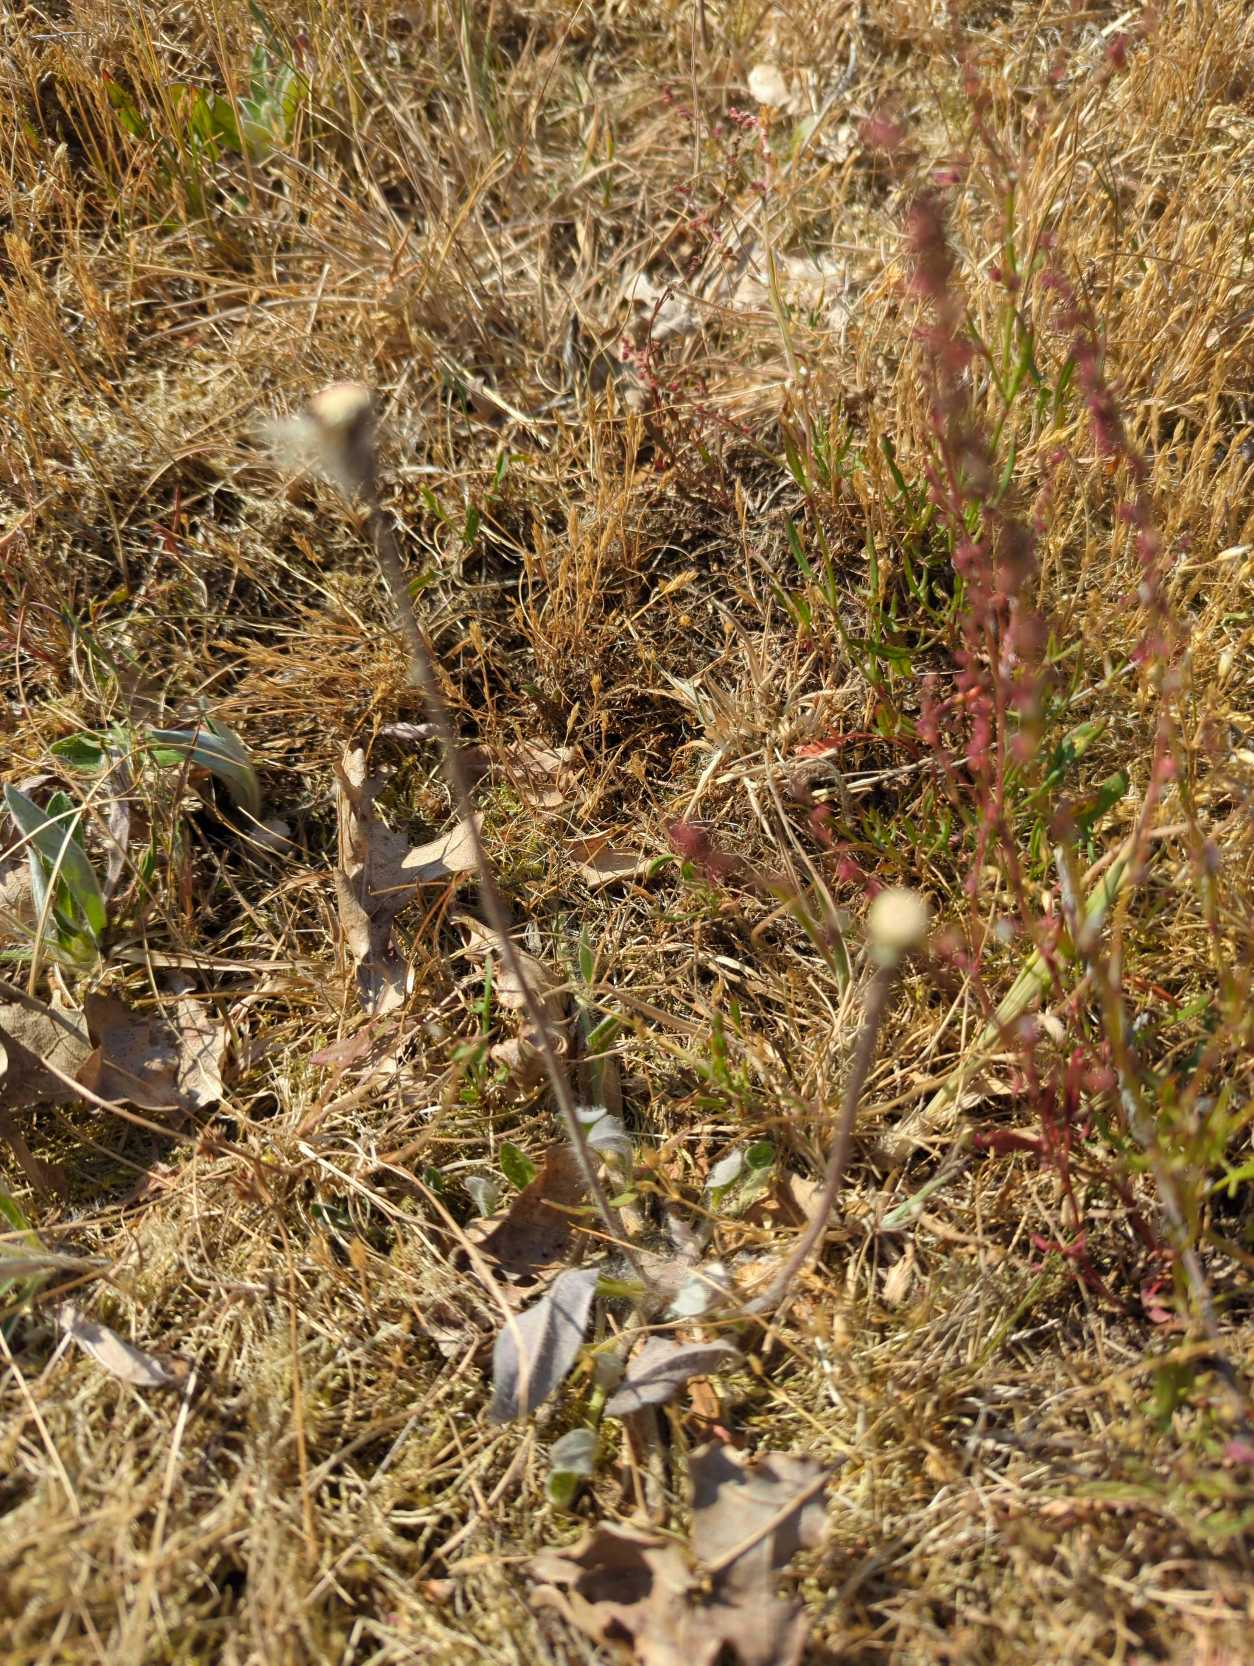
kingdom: Plantae
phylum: Tracheophyta
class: Magnoliopsida
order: Asterales
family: Asteraceae
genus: Pilosella
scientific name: Pilosella officinarum
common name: Håret høgeurt
